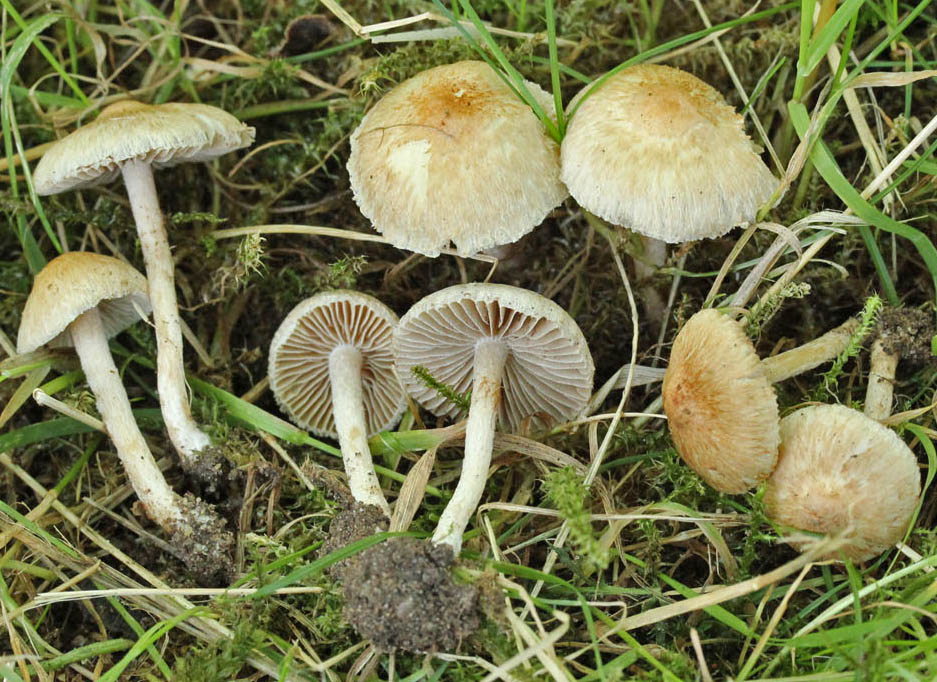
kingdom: Fungi
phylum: Basidiomycota
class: Agaricomycetes
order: Agaricales
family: Inocybaceae
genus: Inocybe
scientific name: Inocybe sindonia
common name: bleg trævlhat
